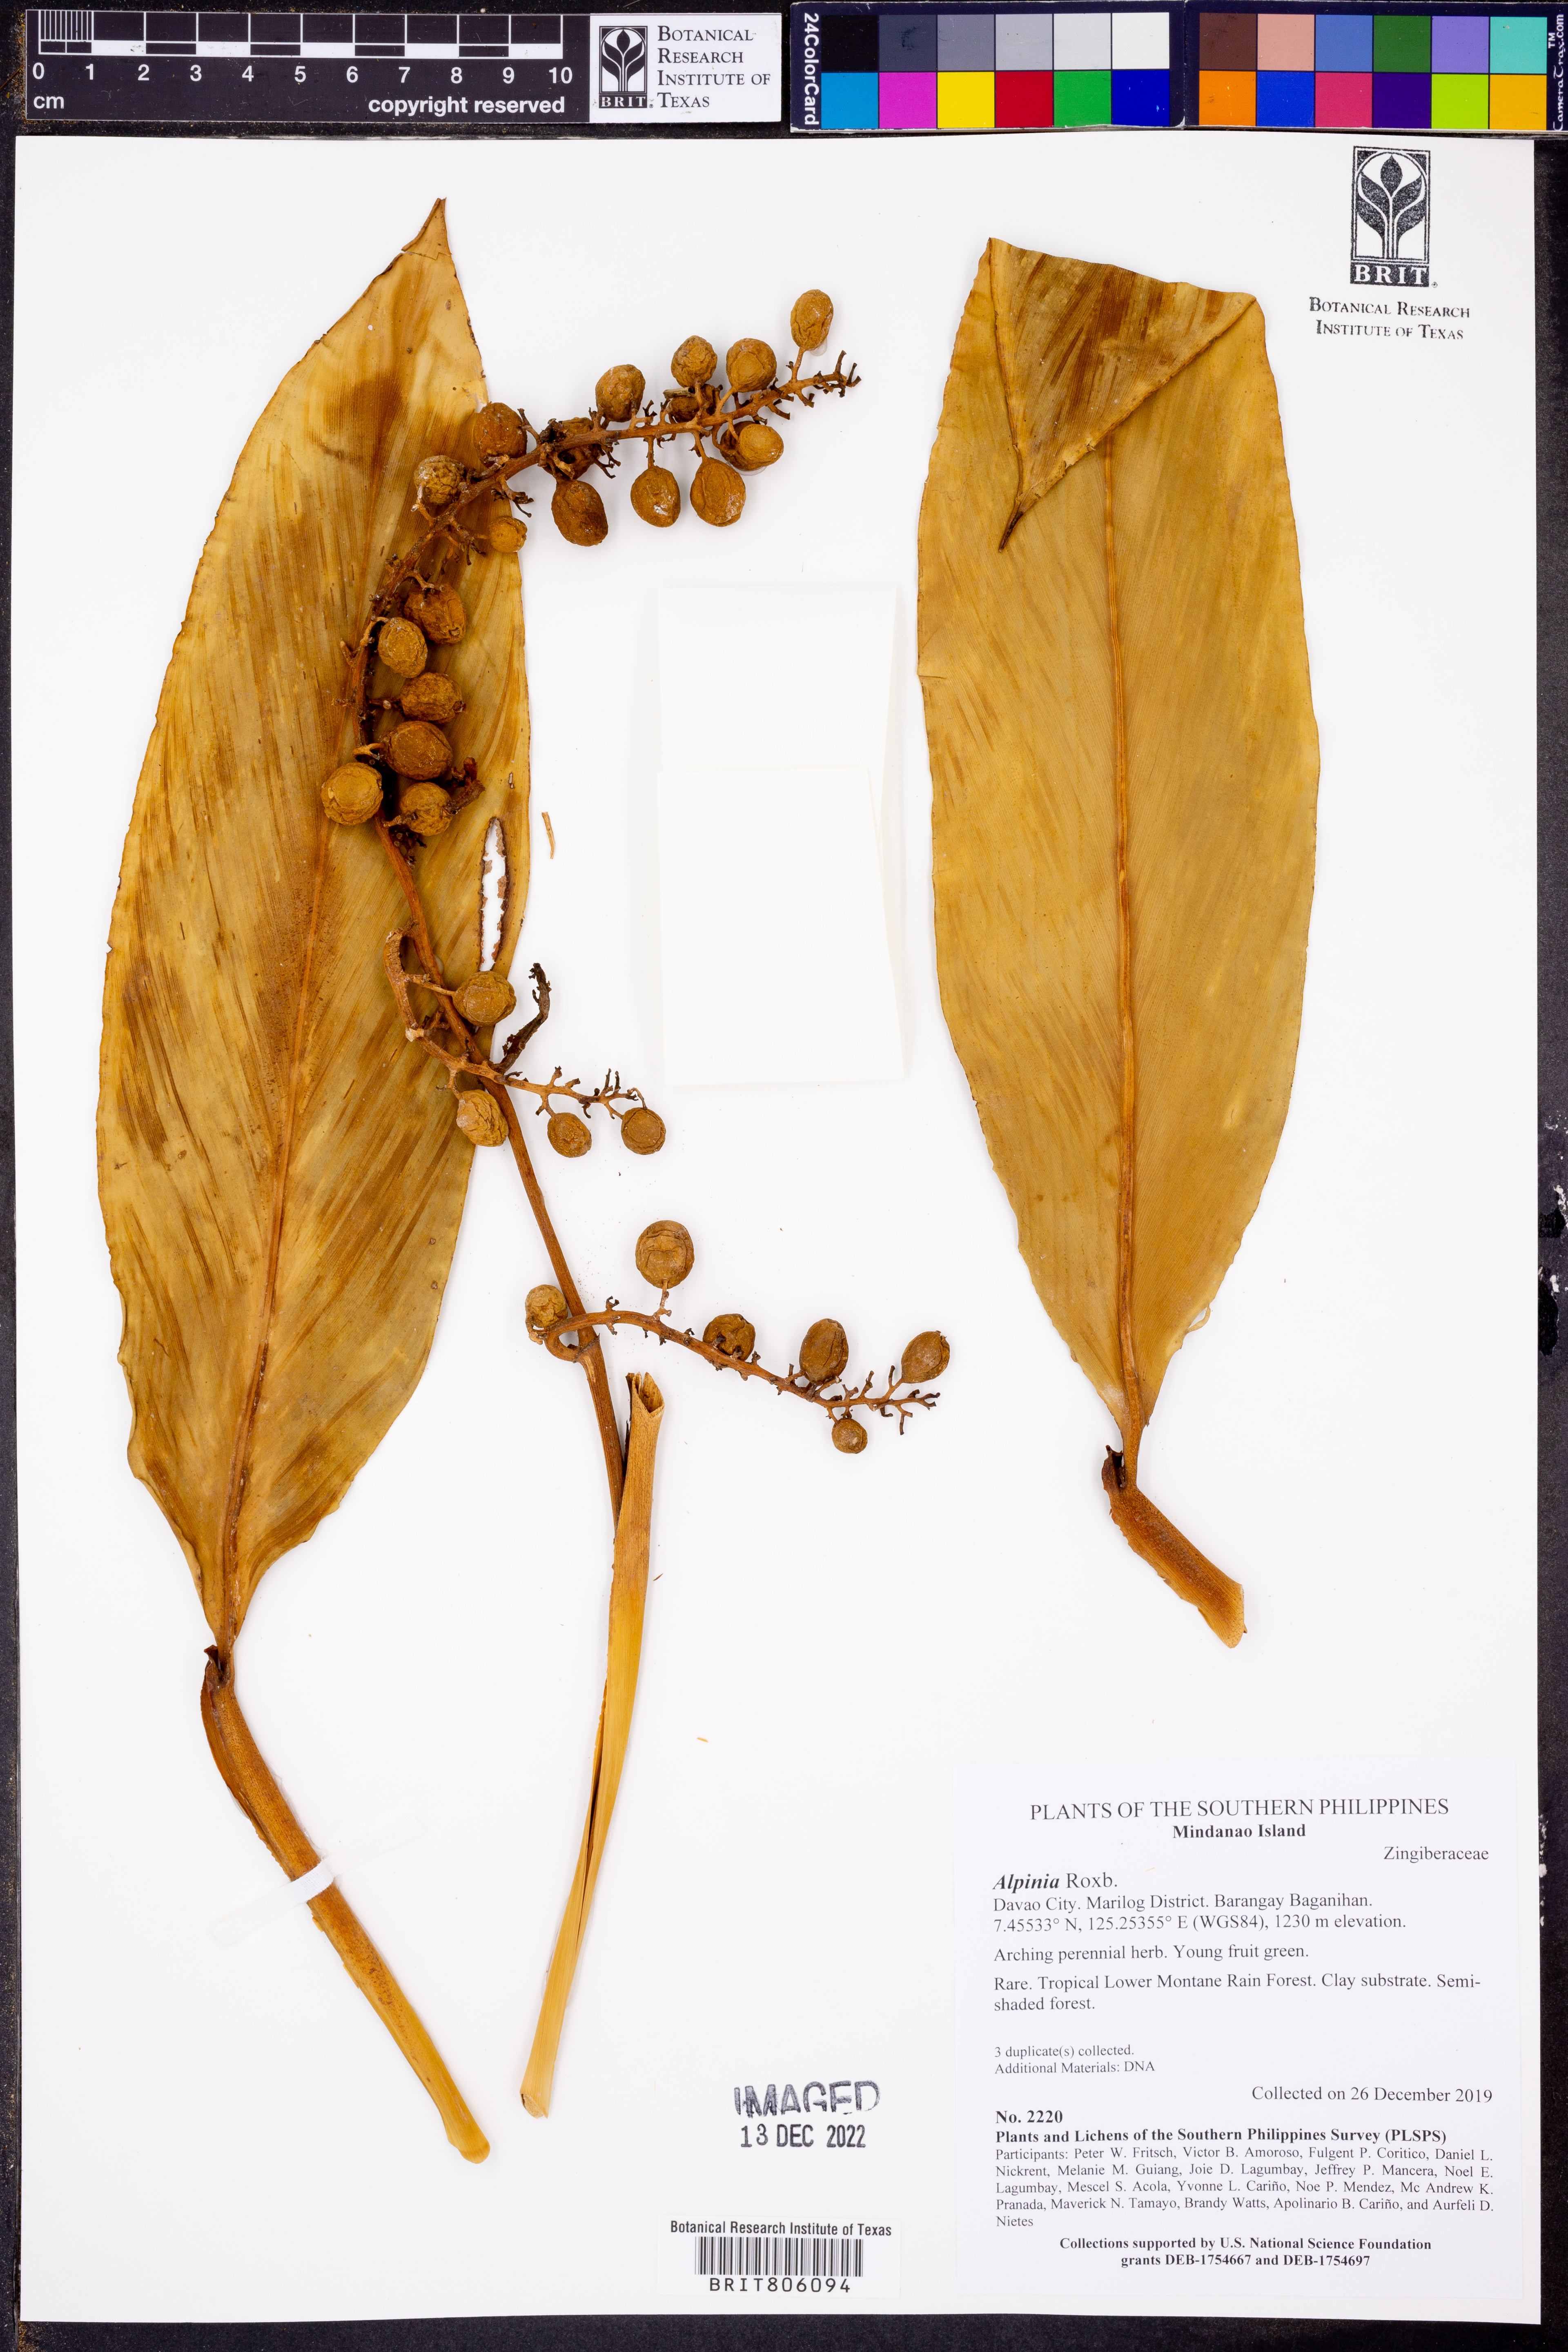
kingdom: Plantae
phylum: Tracheophyta
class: Liliopsida
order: Zingiberales
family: Zingiberaceae
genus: Alpinia
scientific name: Alpinia
